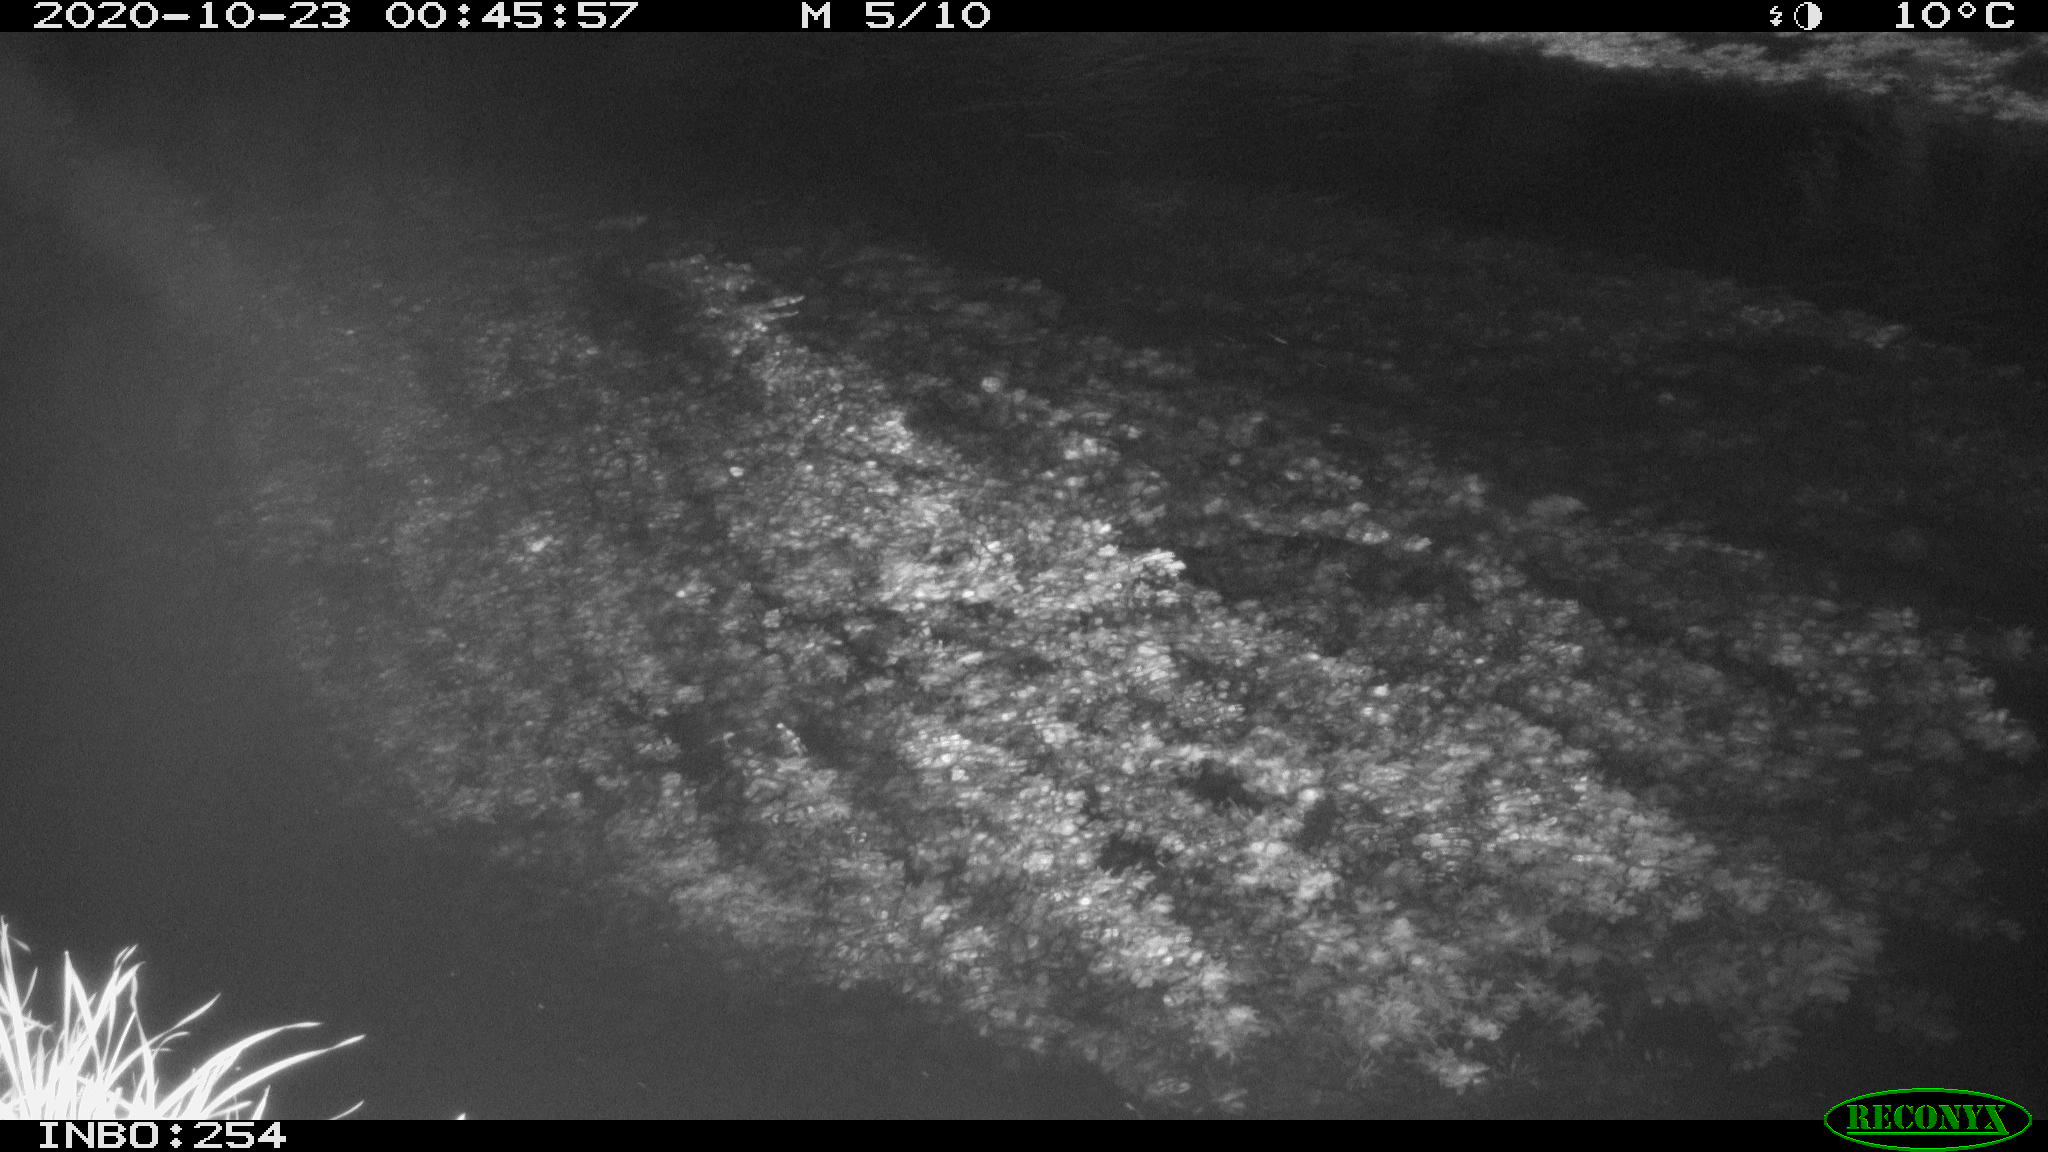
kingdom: Animalia
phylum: Chordata
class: Aves
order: Anseriformes
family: Anatidae
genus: Anas
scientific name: Anas platyrhynchos
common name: Mallard
